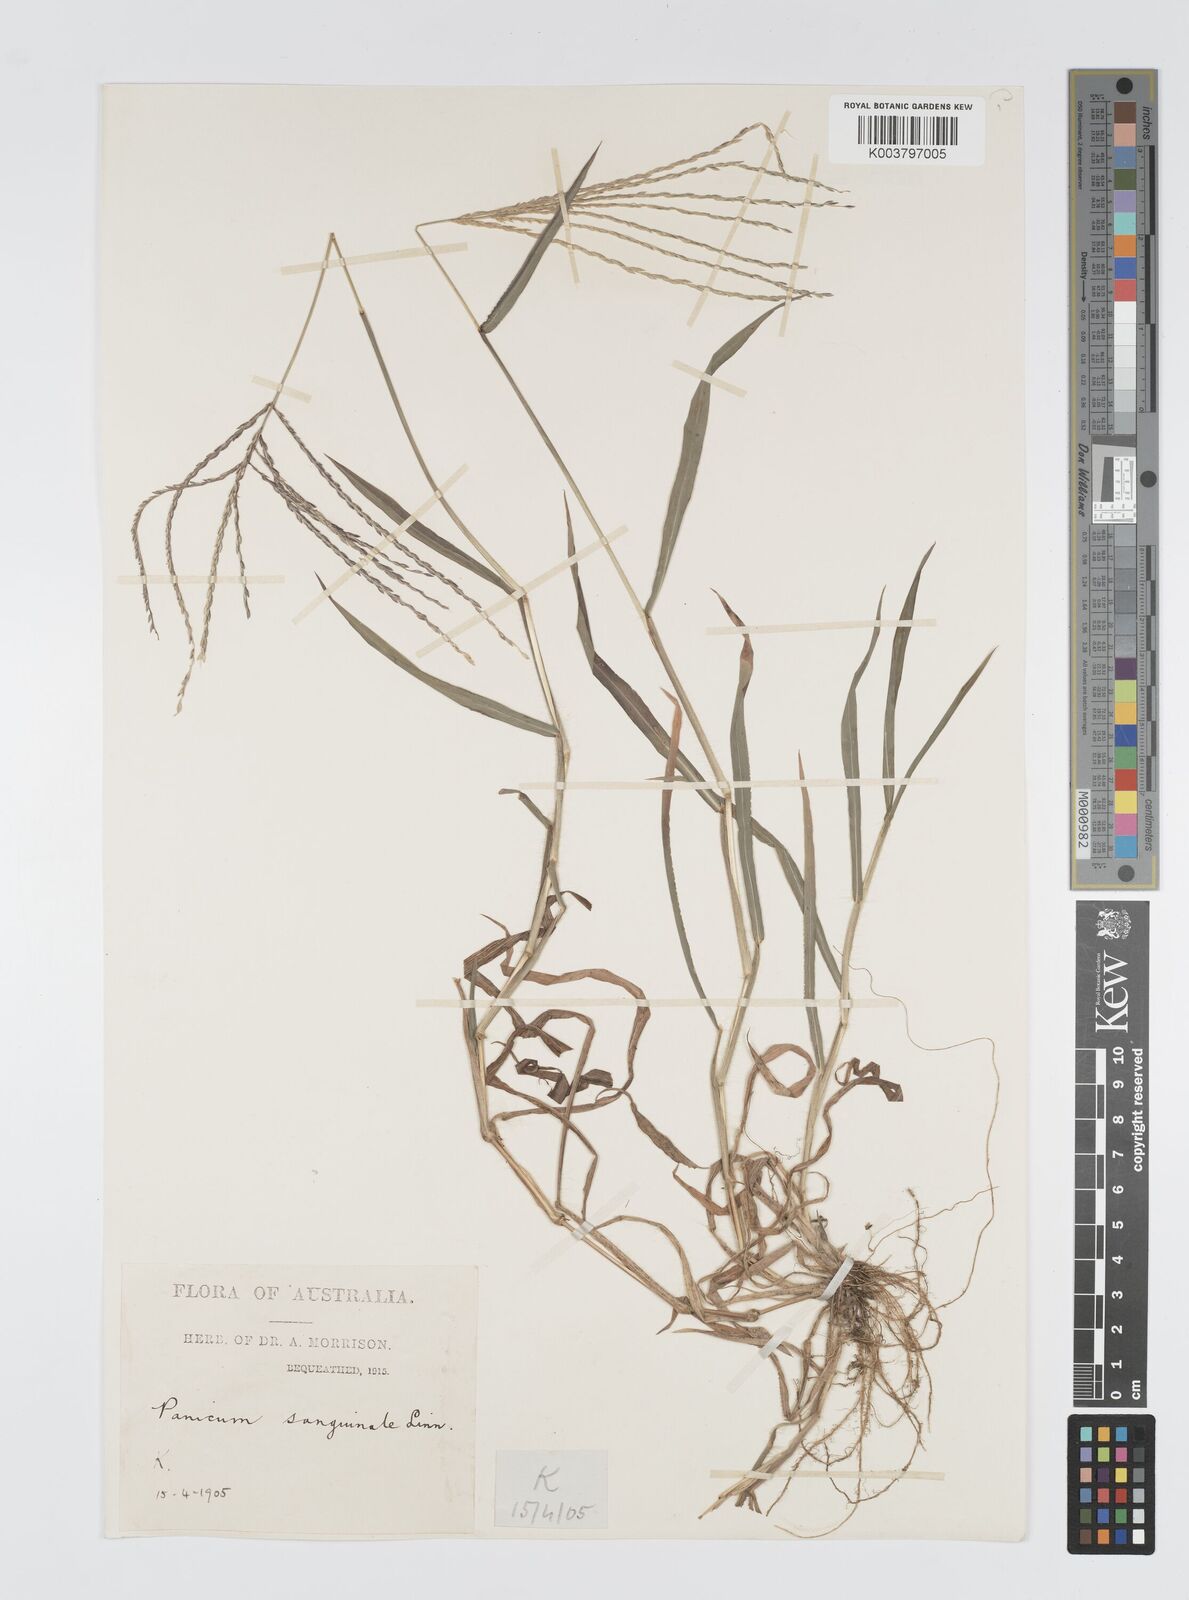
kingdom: Plantae
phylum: Tracheophyta
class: Liliopsida
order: Poales
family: Poaceae
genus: Digitaria
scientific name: Digitaria ciliaris
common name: Tropical finger-grass
